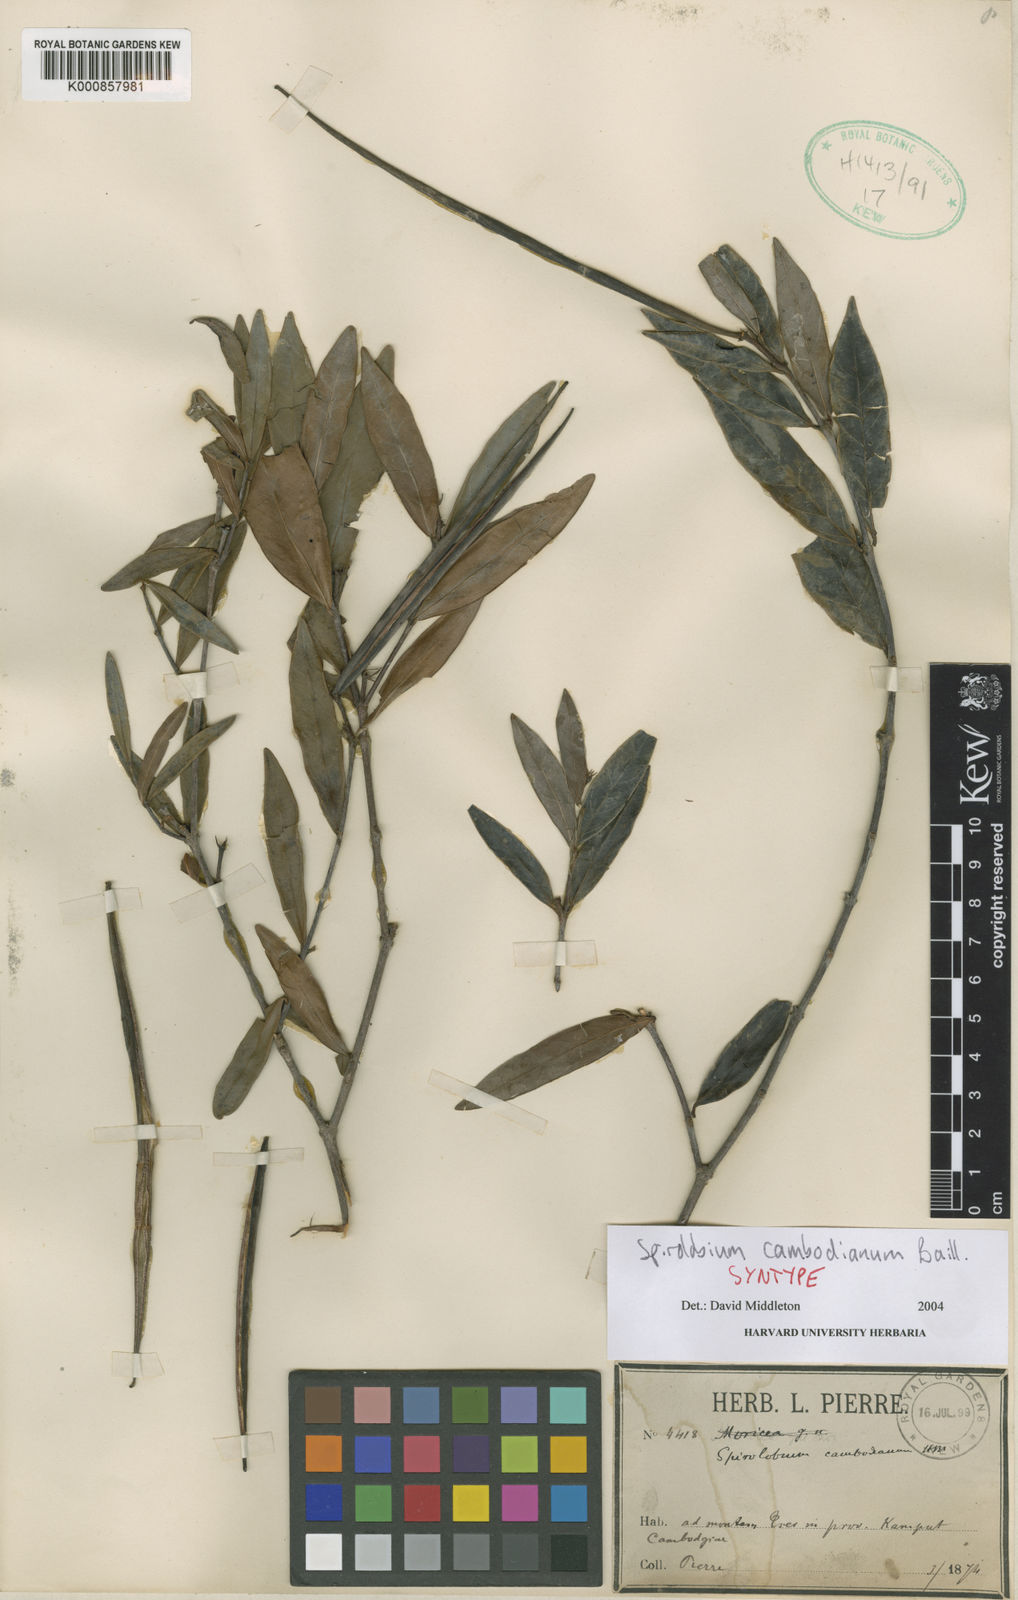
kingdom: Plantae
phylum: Tracheophyta
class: Magnoliopsida
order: Gentianales
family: Apocynaceae
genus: Spirolobium
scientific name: Spirolobium cambodianum
